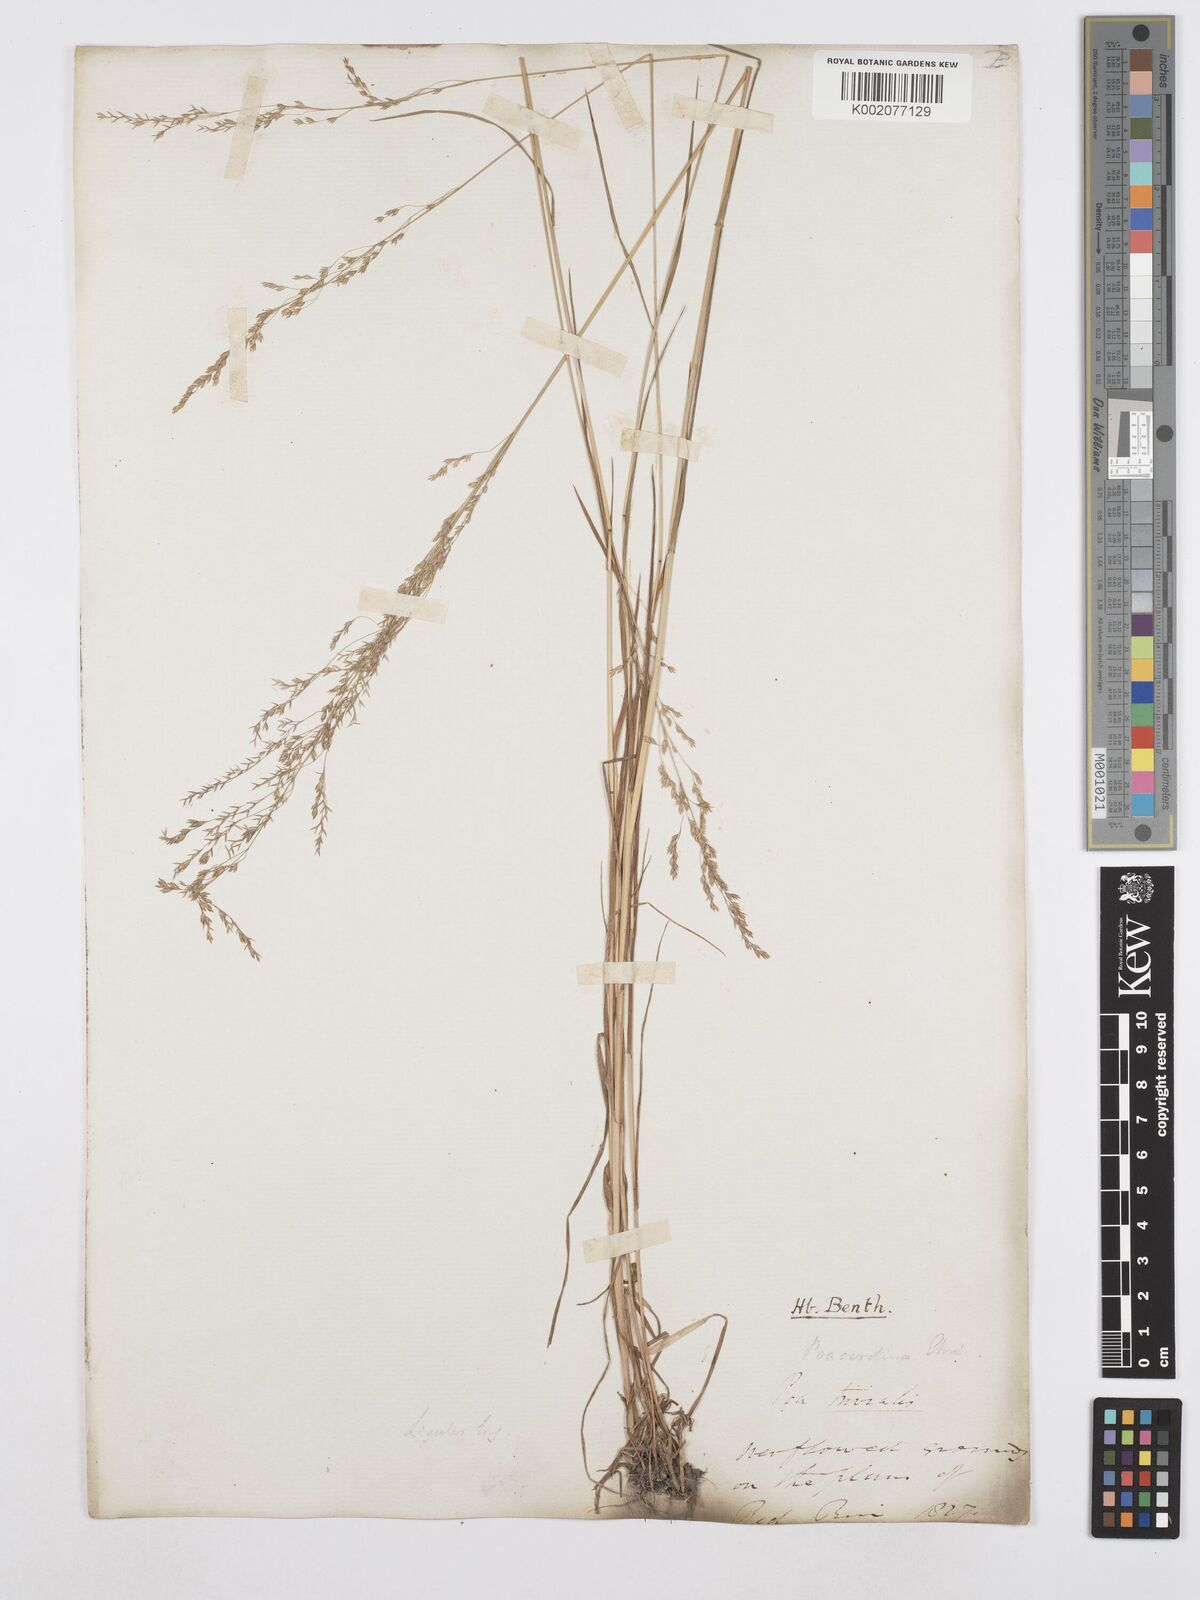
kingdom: Plantae
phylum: Tracheophyta
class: Liliopsida
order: Poales
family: Poaceae
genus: Poa
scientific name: Poa palustris
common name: Swamp meadow-grass
